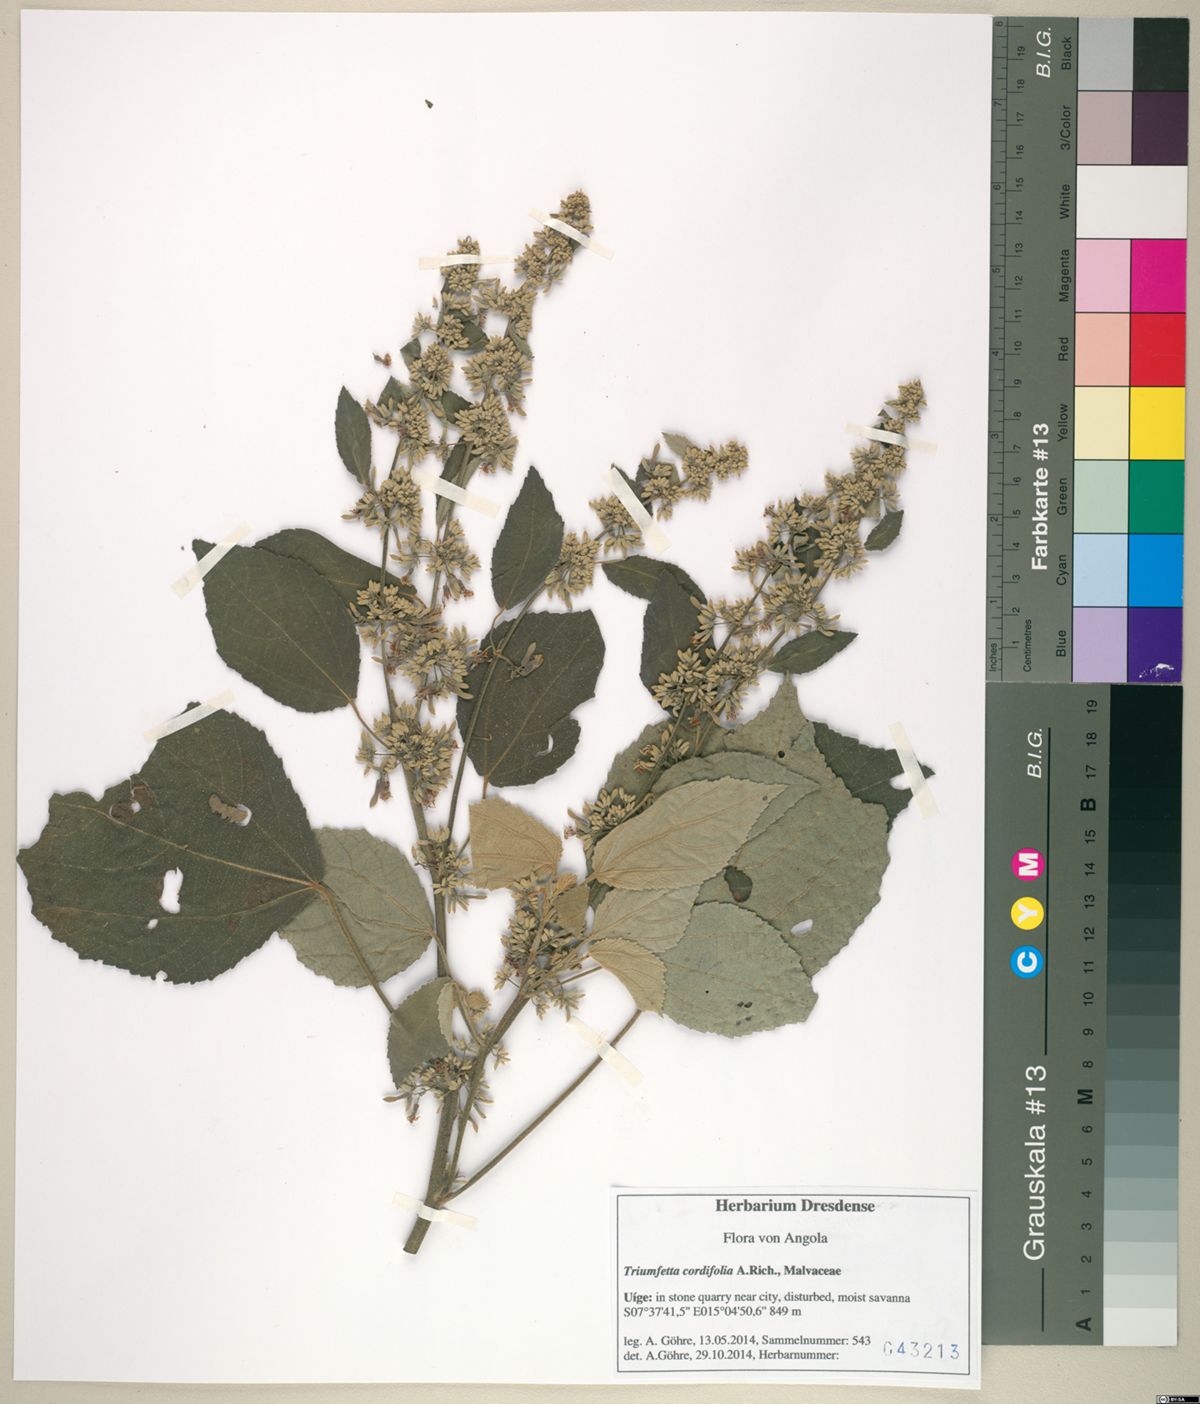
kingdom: Plantae
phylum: Tracheophyta
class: Magnoliopsida
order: Malvales
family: Malvaceae
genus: Triumfetta
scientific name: Triumfetta cordifolia
